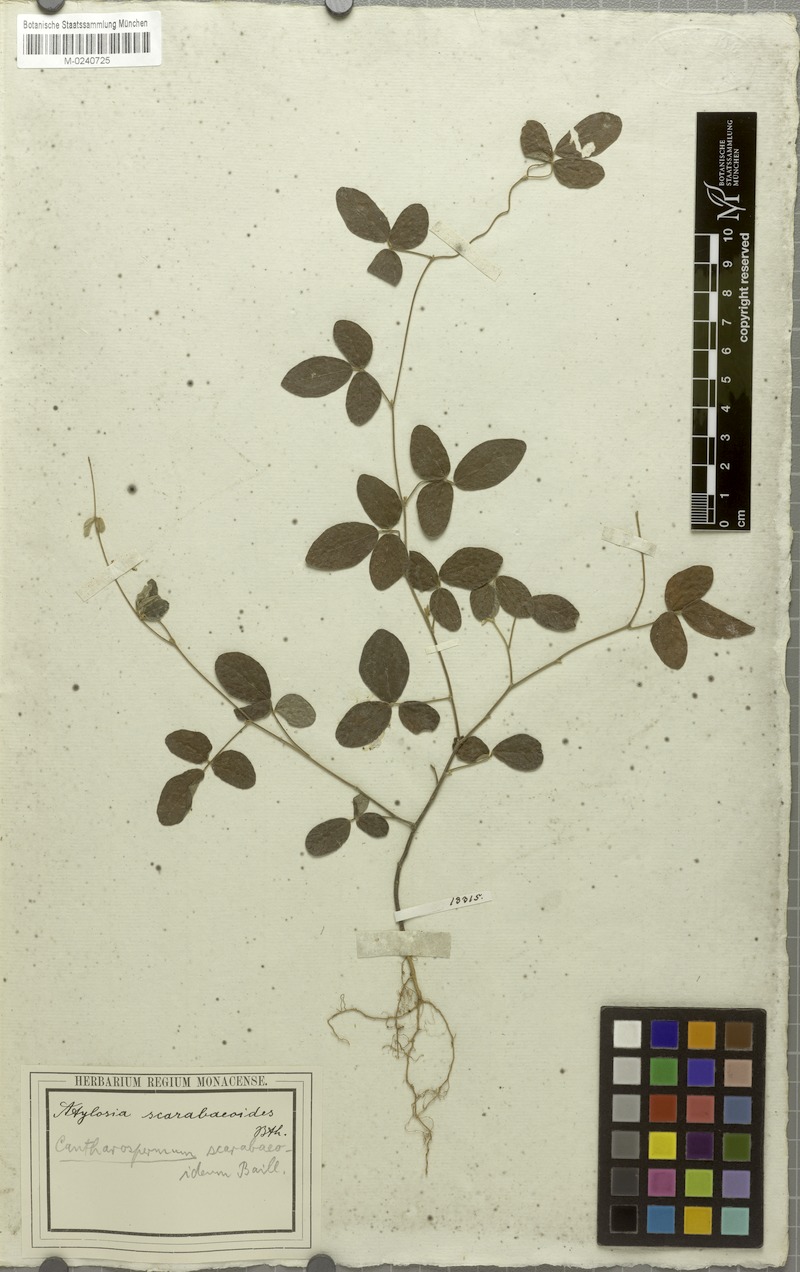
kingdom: Plantae
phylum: Tracheophyta
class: Magnoliopsida
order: Fabales
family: Fabaceae
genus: Cajanus
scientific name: Cajanus scarabaeoides
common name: Showy pigeonpea
